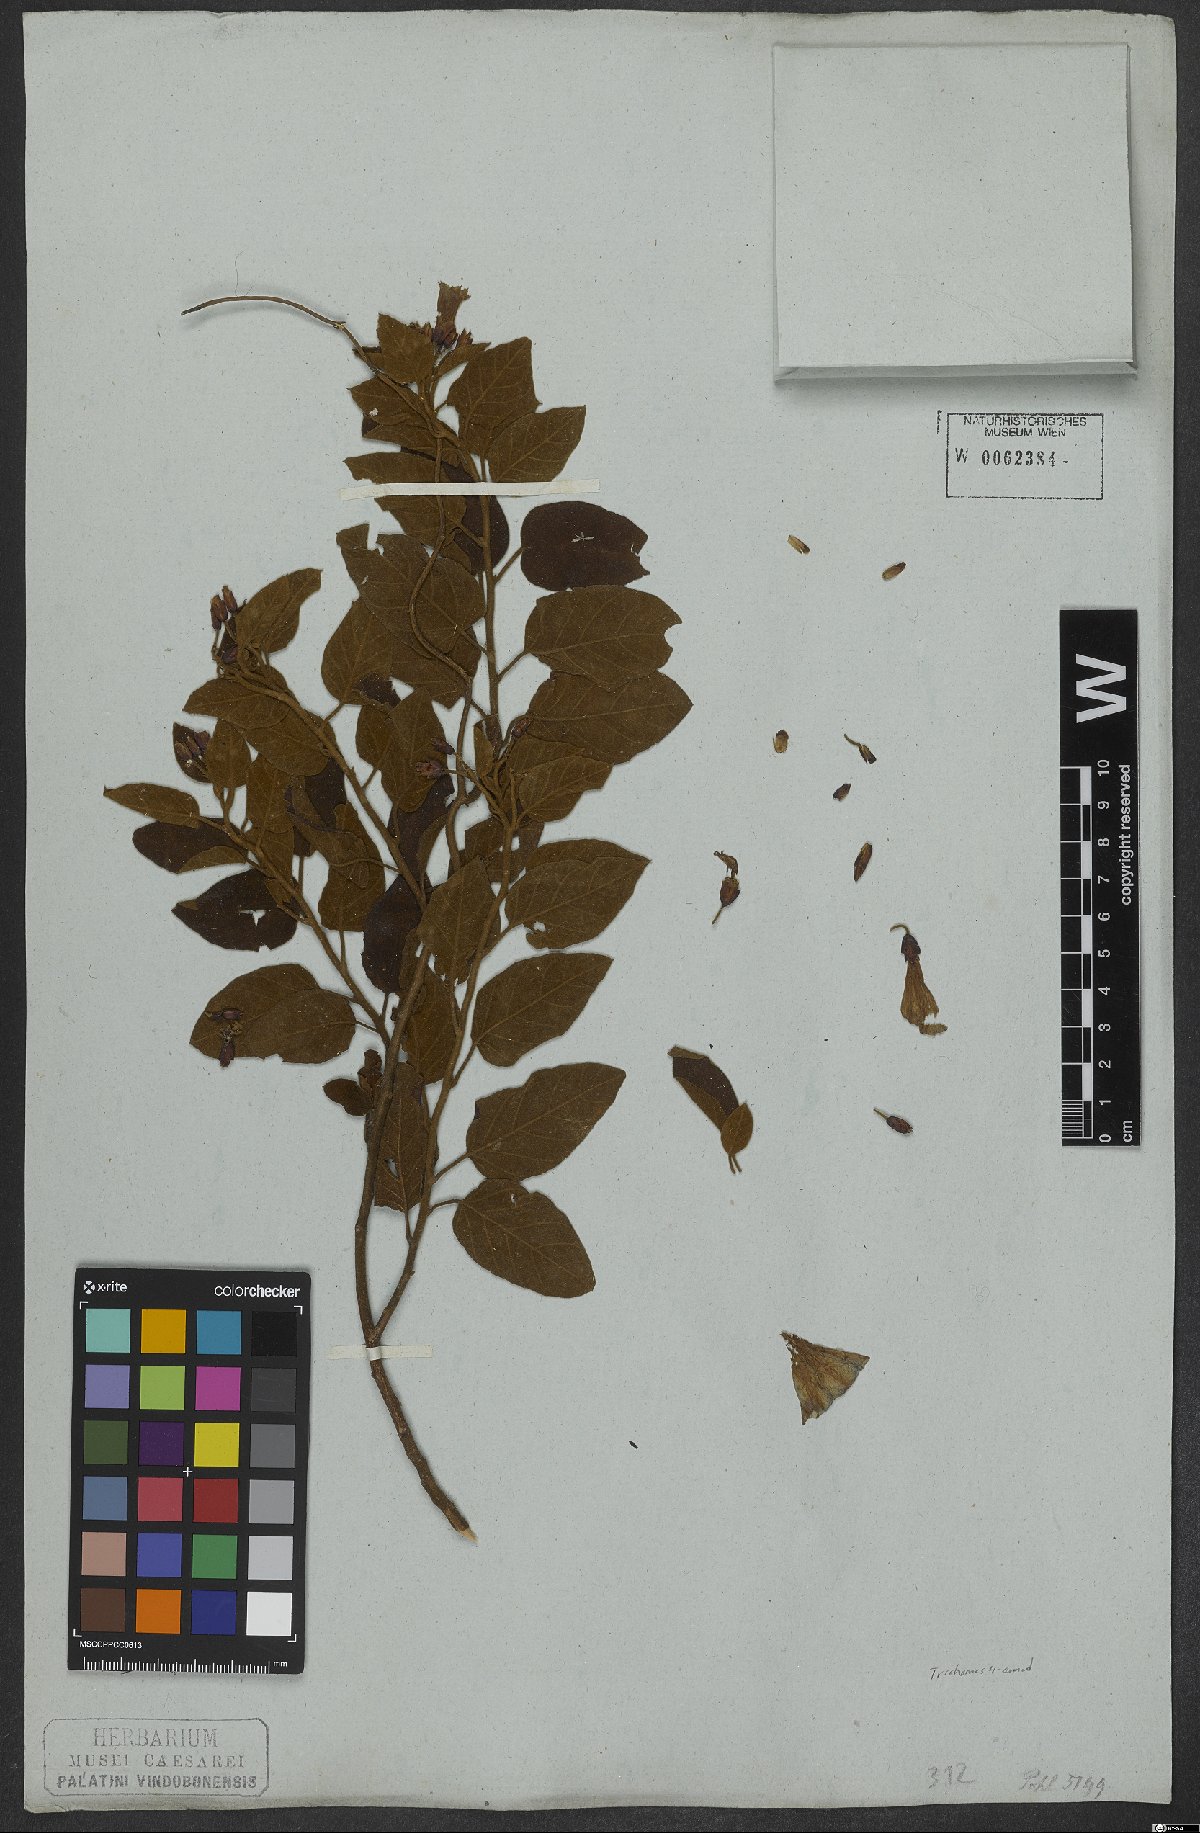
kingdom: Plantae
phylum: Tracheophyta
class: Magnoliopsida
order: Solanales
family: Convolvulaceae
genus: Jacquemontia
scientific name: Jacquemontia holosericea
